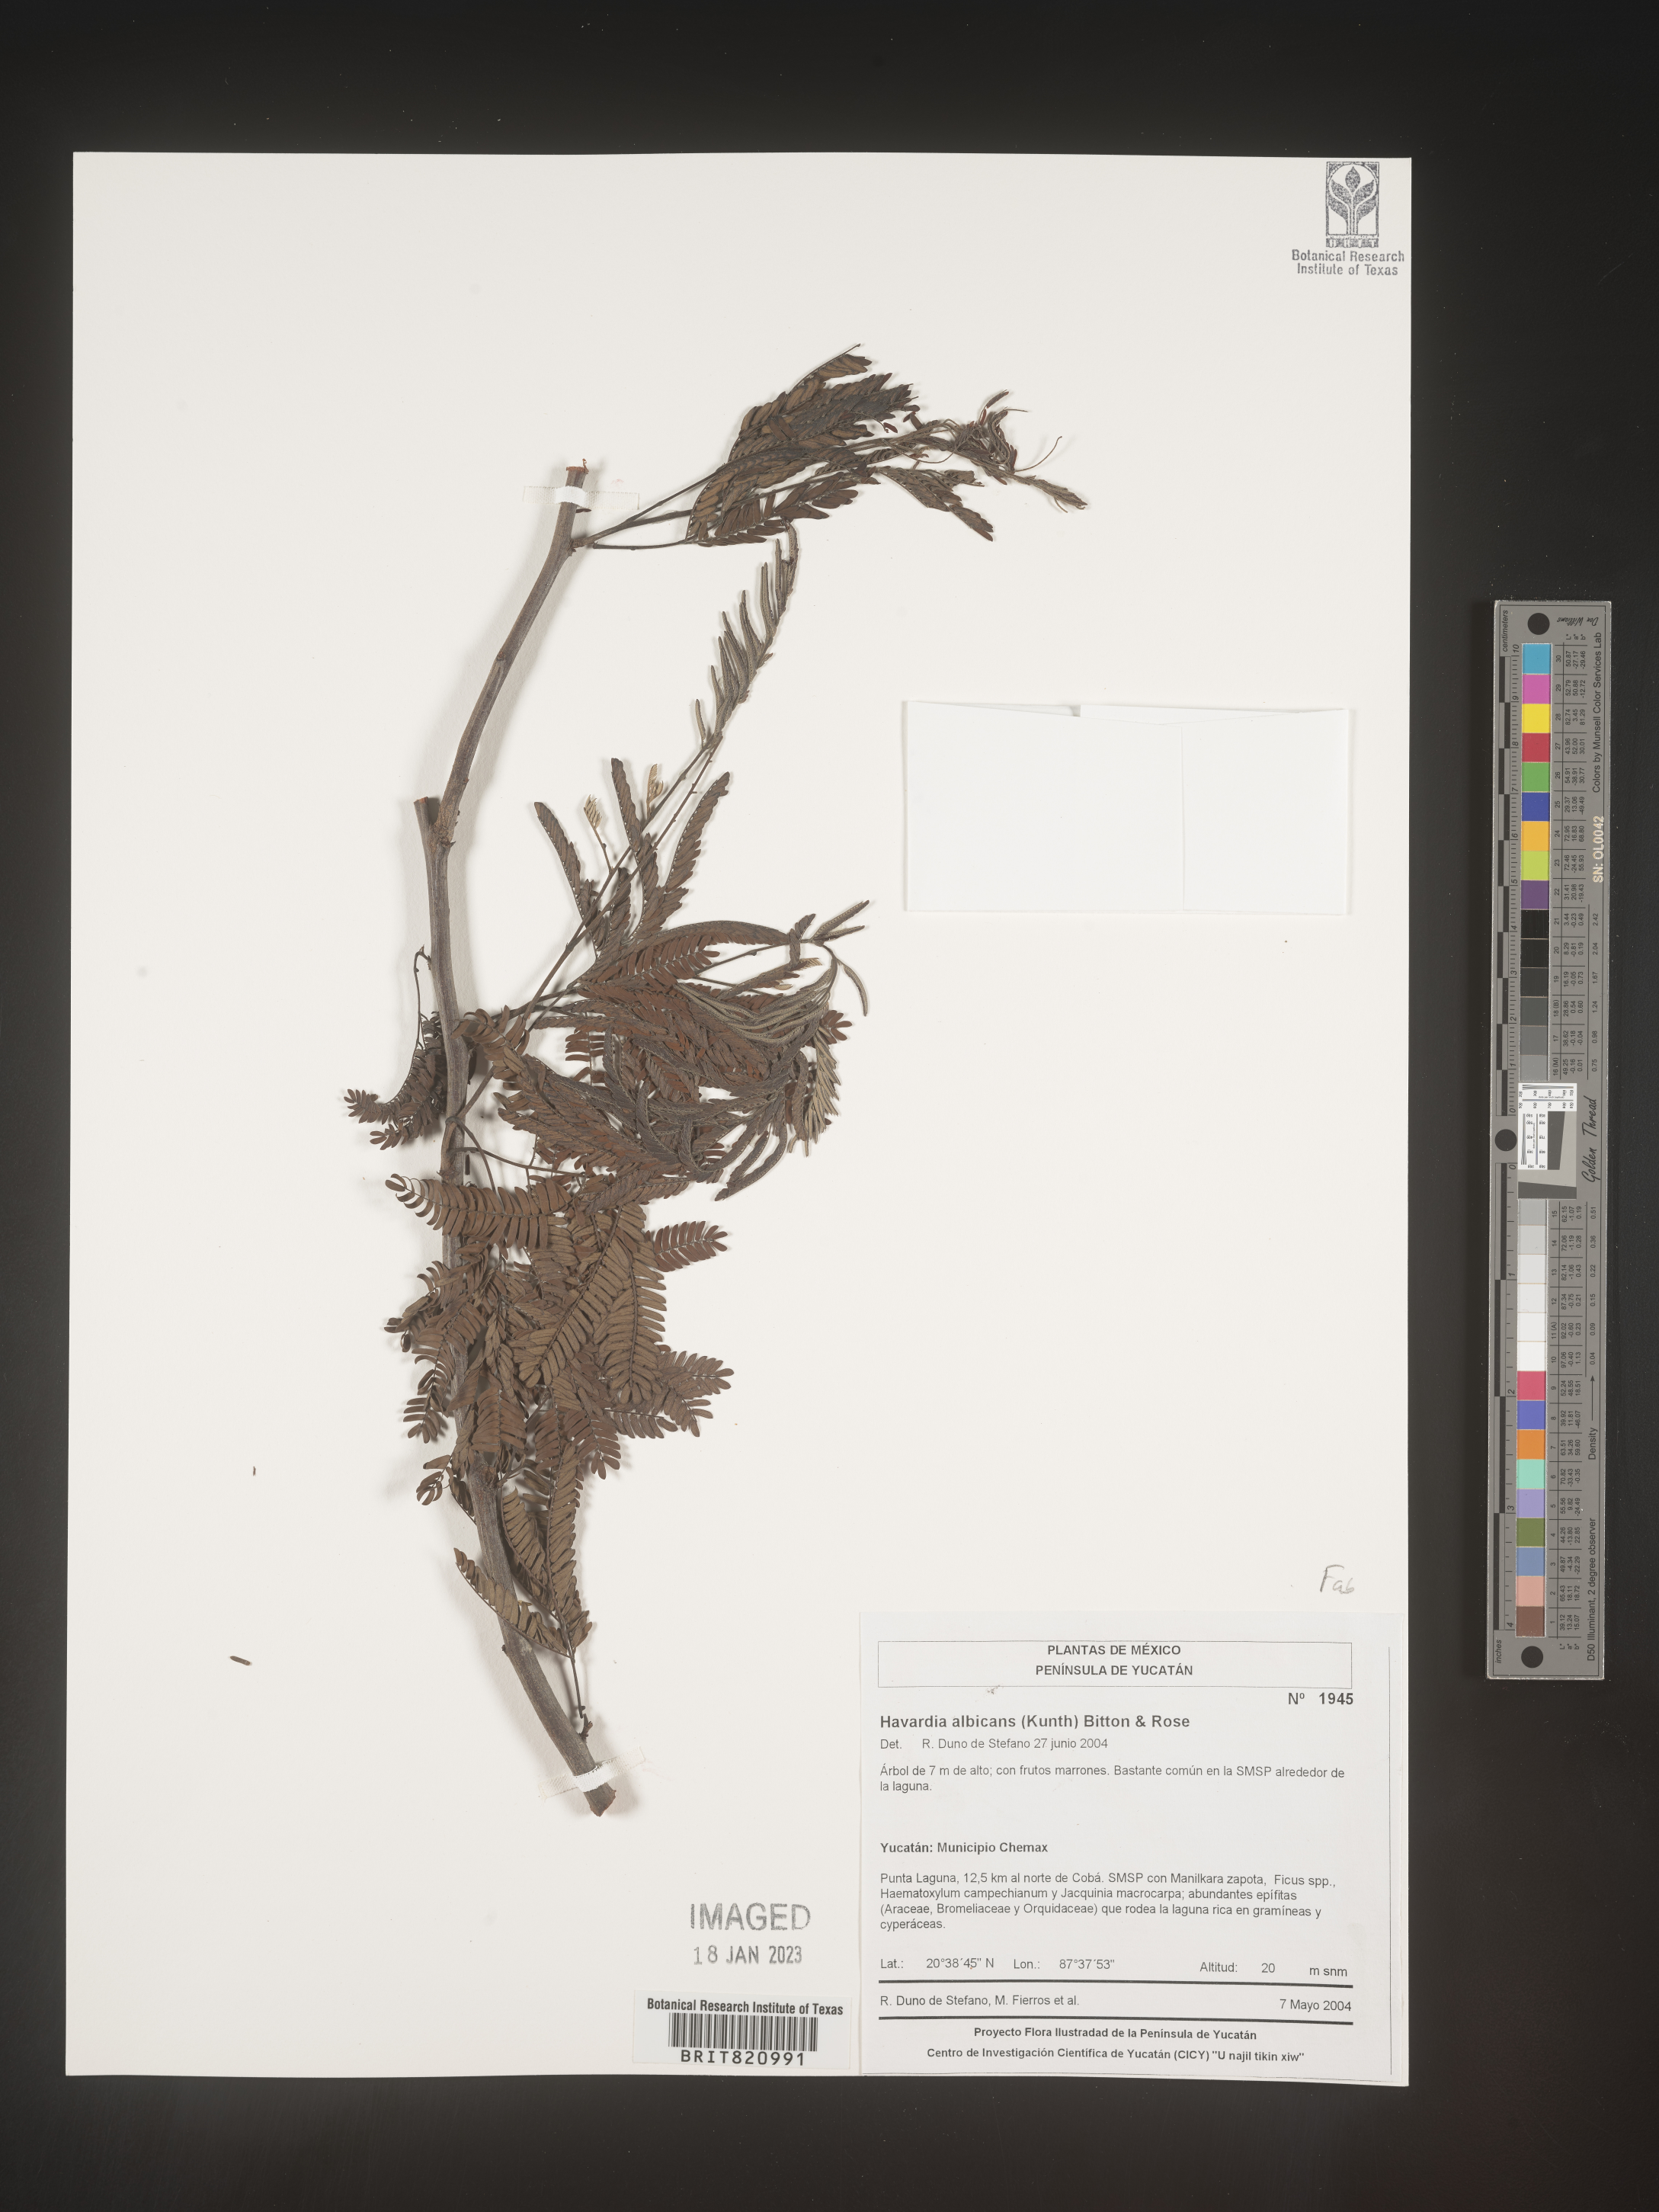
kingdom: Plantae
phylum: Tracheophyta
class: Magnoliopsida
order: Fabales
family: Fabaceae
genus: Havardia
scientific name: Havardia
